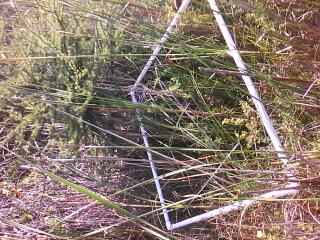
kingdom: Plantae
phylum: Tracheophyta
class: Liliopsida
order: Poales
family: Cyperaceae
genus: Carex
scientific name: Carex stricta
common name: Hummock sedge
